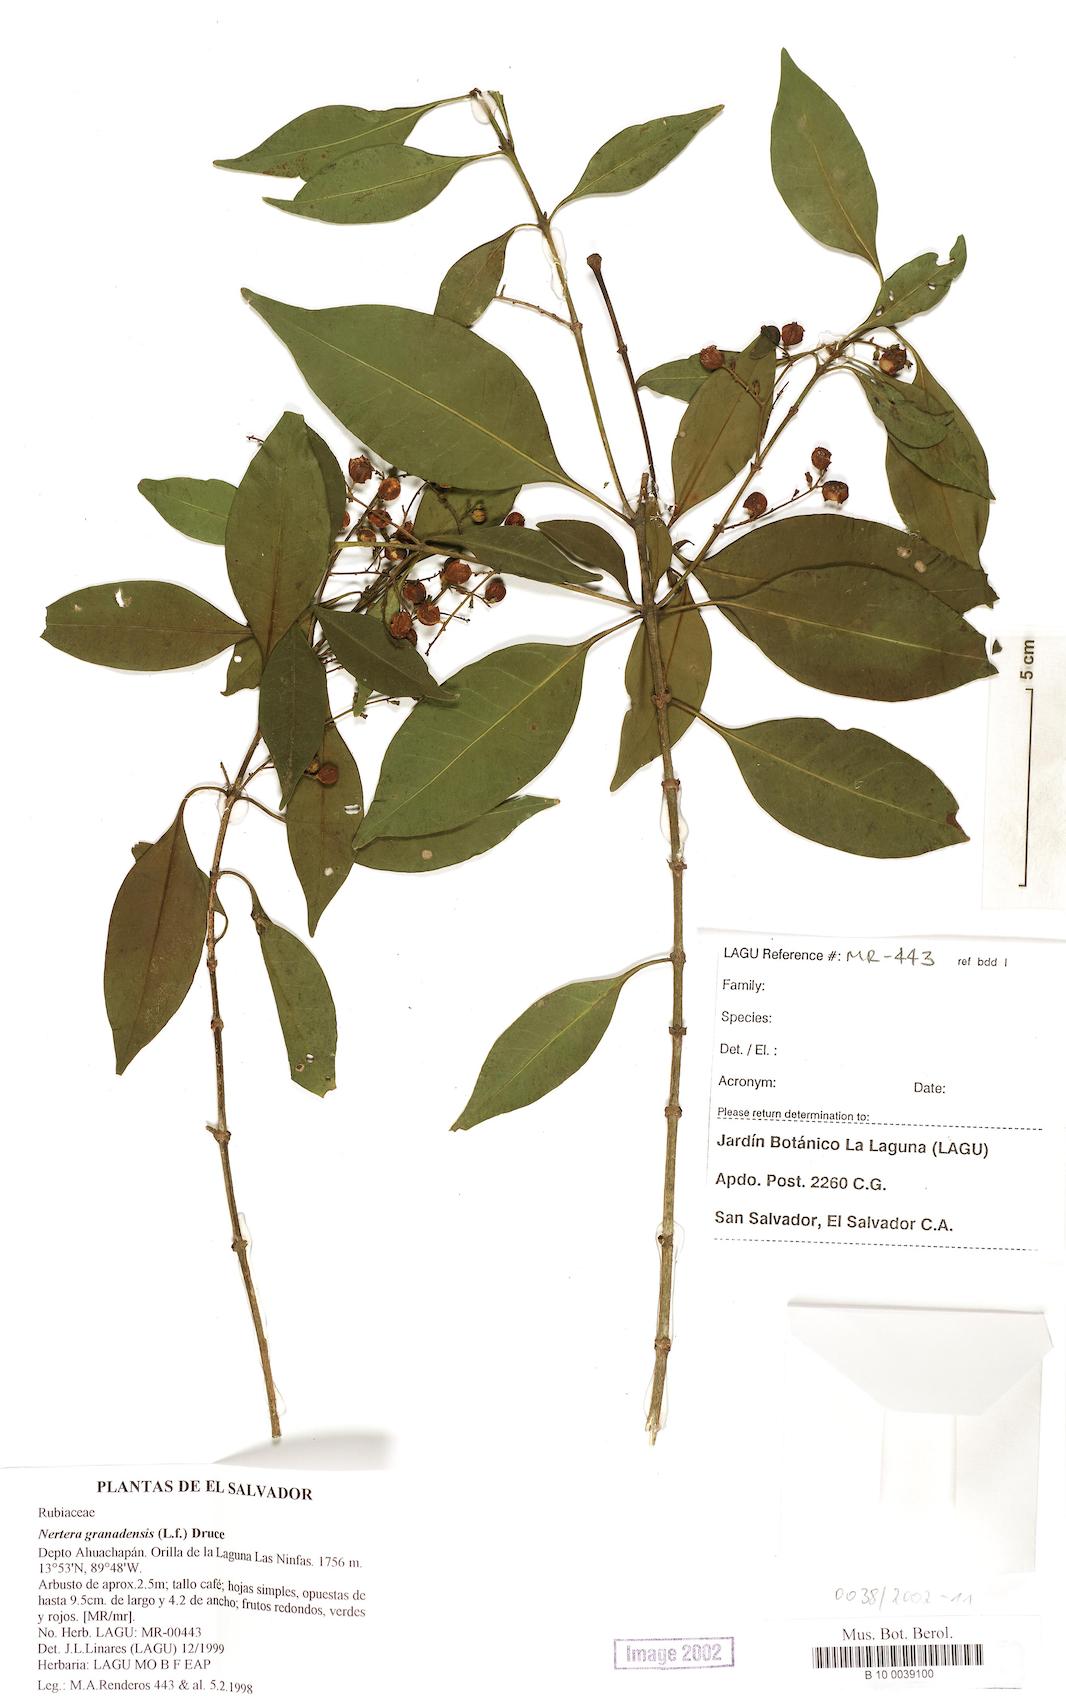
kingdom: Plantae
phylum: Tracheophyta
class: Magnoliopsida
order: Gentianales
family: Rubiaceae
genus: Chiococca
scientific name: Chiococca pachyphylla
